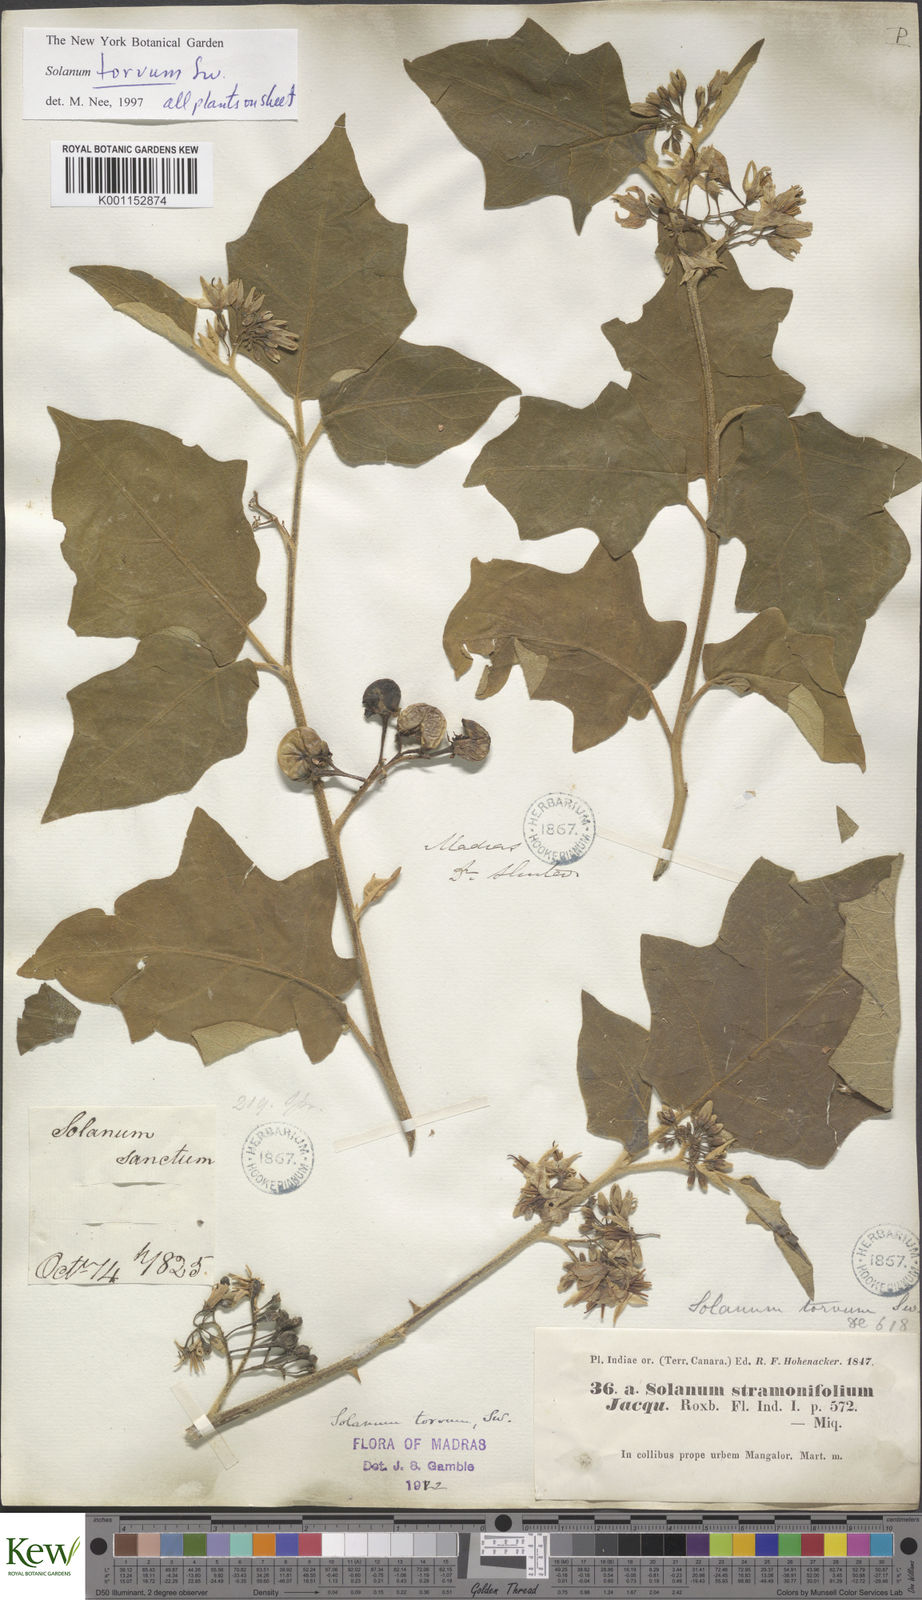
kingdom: Plantae
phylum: Tracheophyta
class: Magnoliopsida
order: Solanales
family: Solanaceae
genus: Solanum
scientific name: Solanum torvum
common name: Turkey berry
